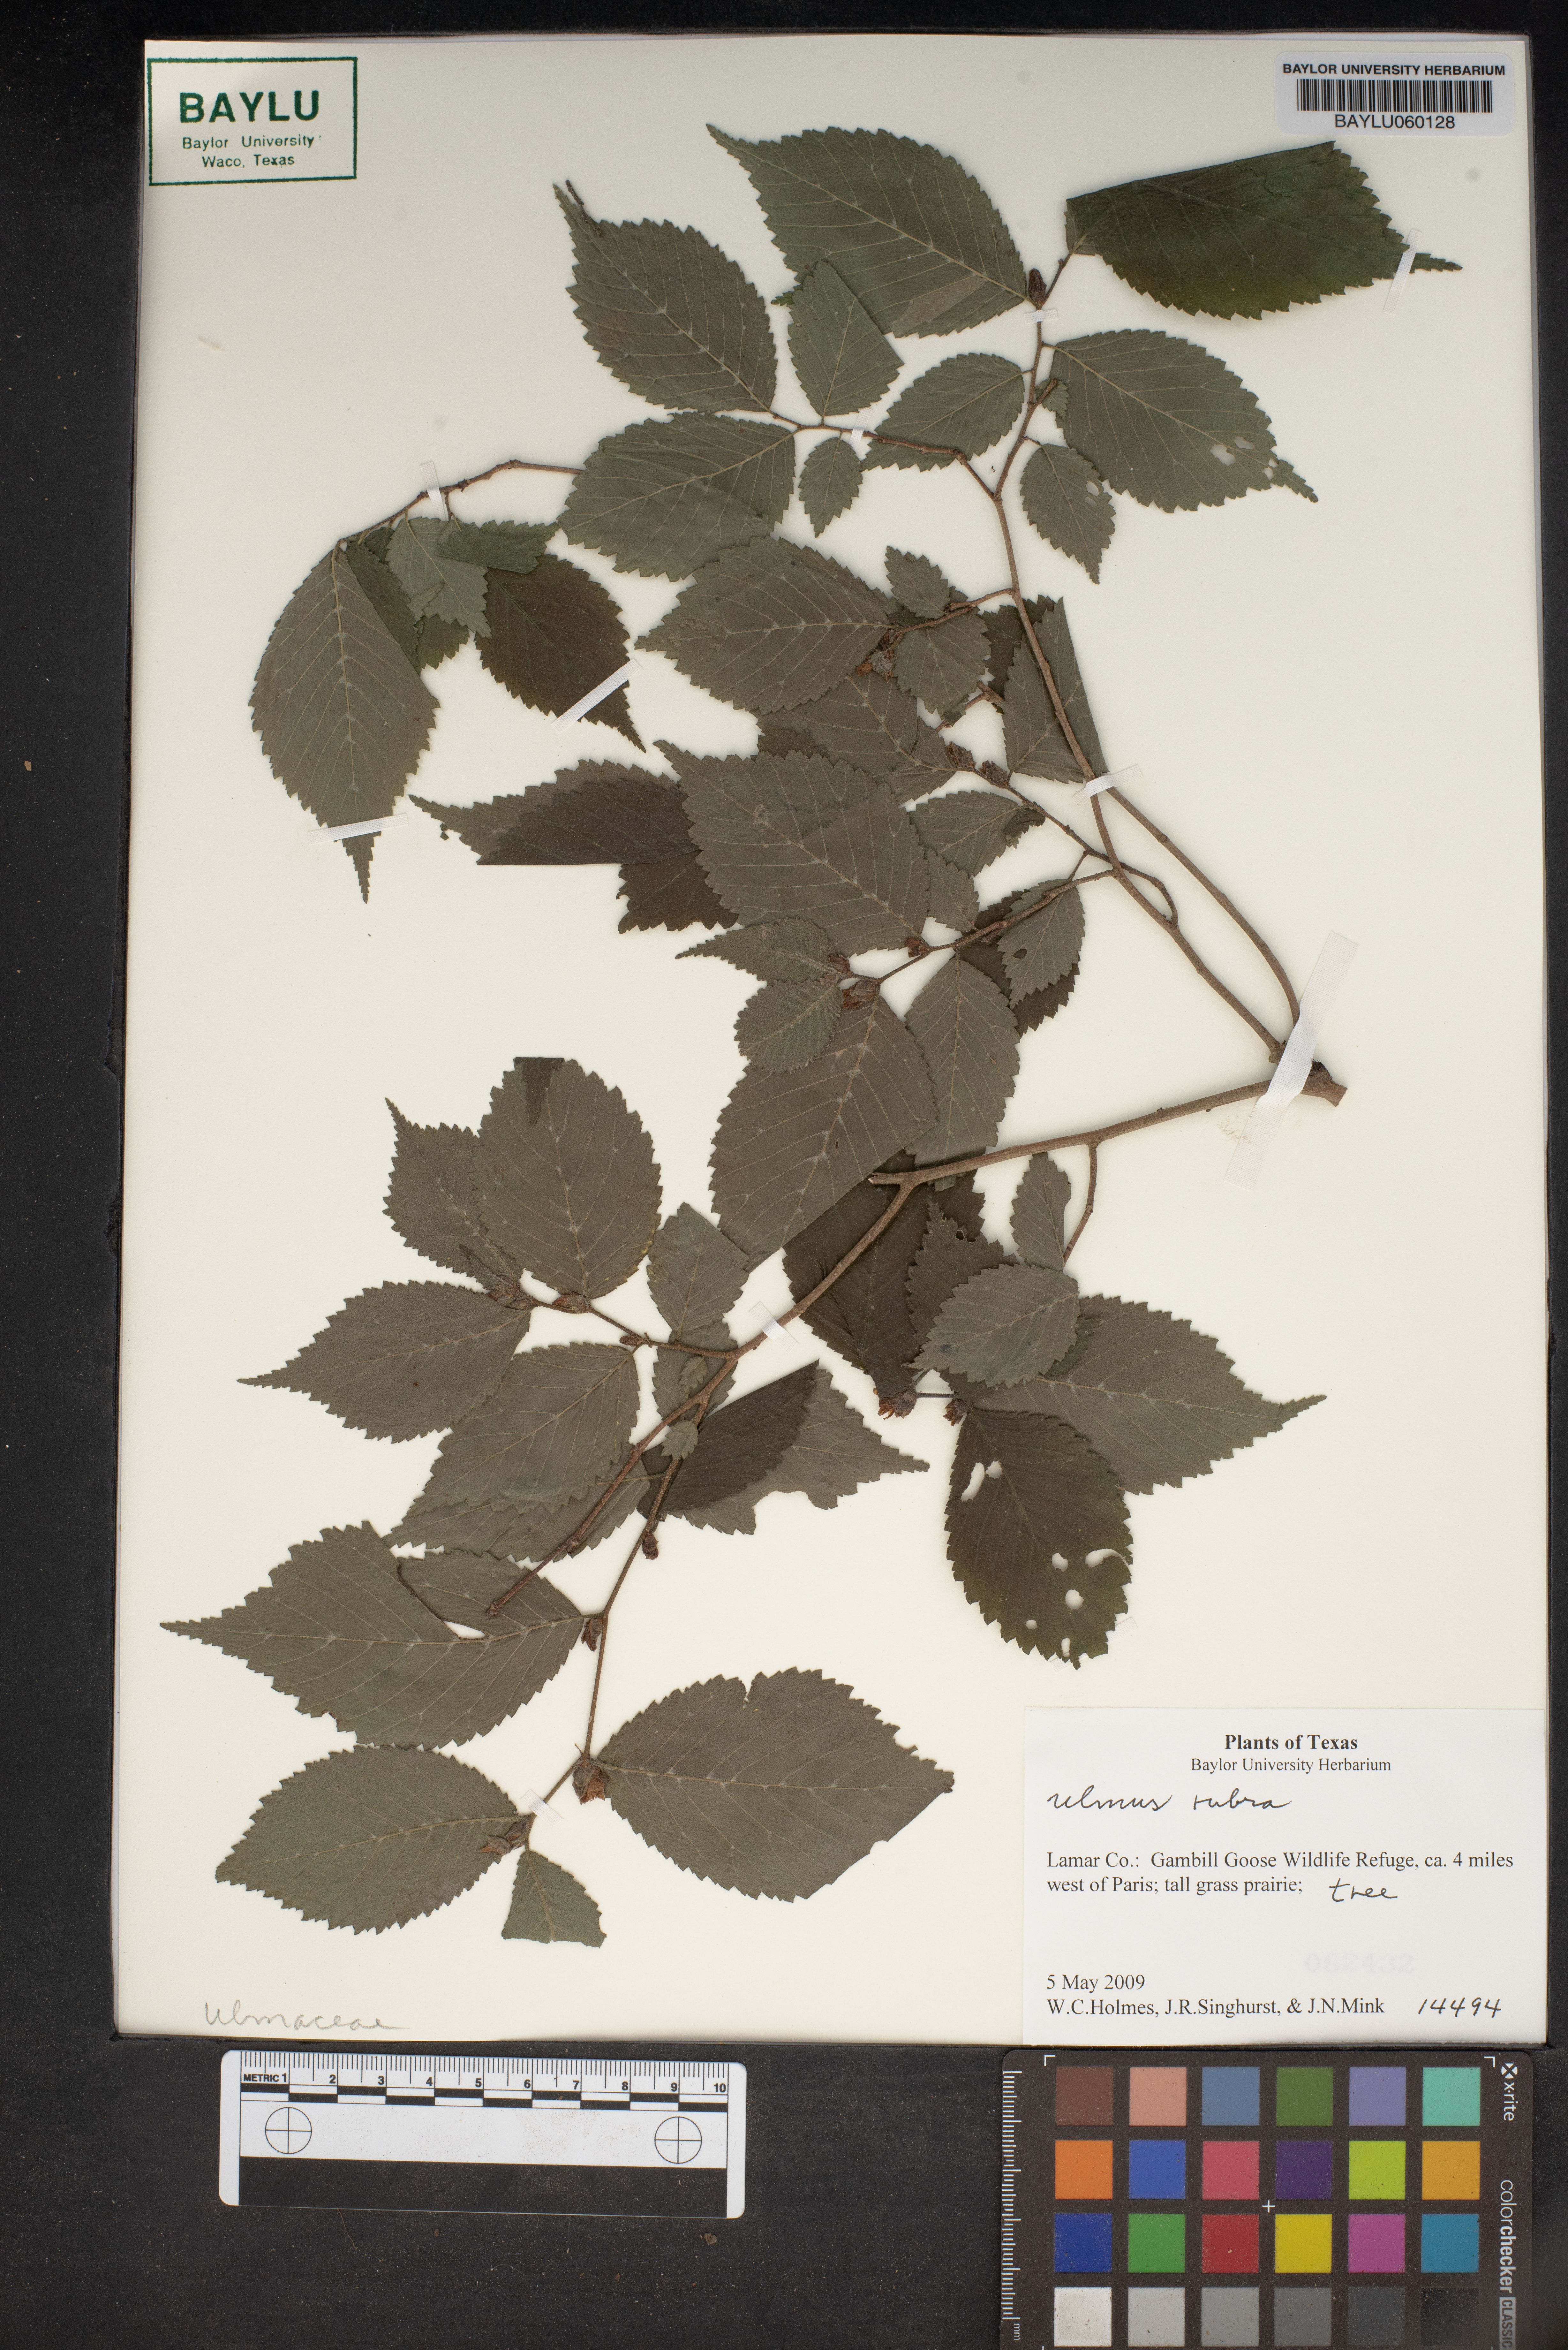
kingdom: Plantae
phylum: Tracheophyta
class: Magnoliopsida
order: Rosales
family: Ulmaceae
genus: Ulmus
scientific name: Ulmus rubra
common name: Slippery elm
